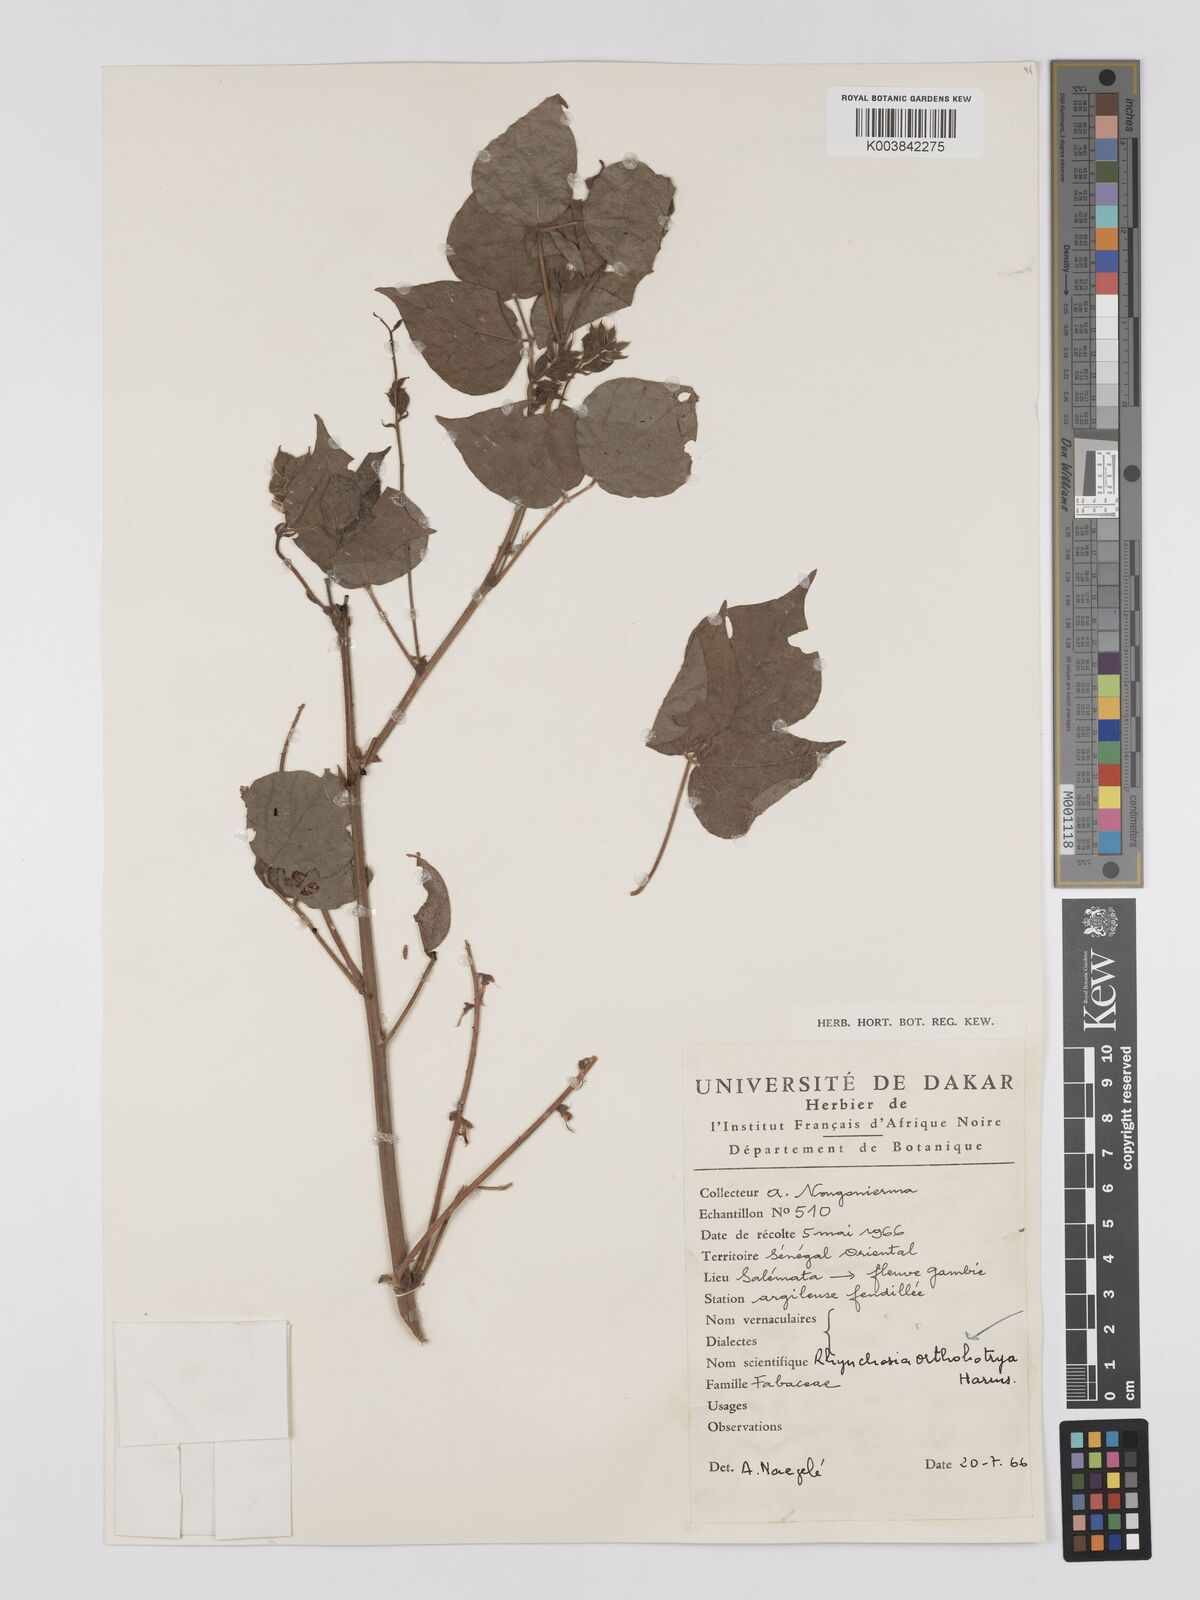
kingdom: Plantae
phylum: Tracheophyta
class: Magnoliopsida
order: Fabales
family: Fabaceae
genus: Rhynchosia
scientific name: Rhynchosia orthobotrya
